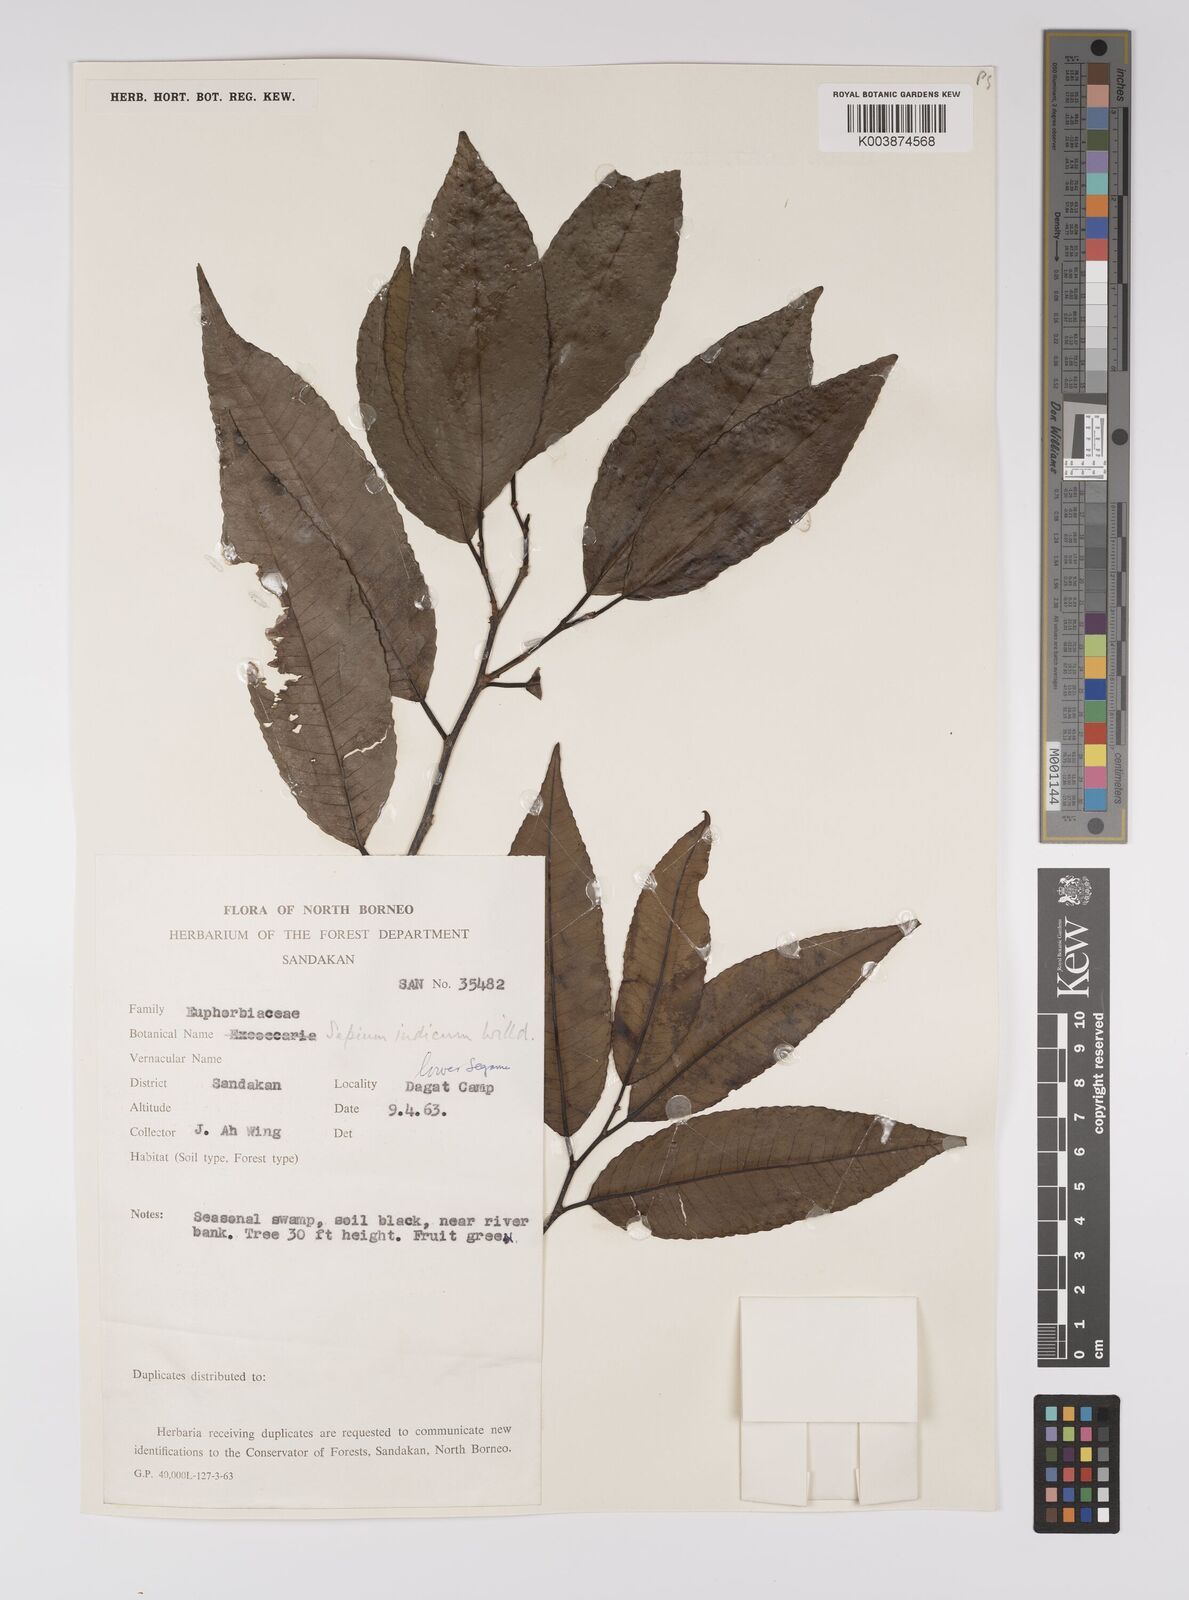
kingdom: Plantae
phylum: Tracheophyta
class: Magnoliopsida
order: Malpighiales
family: Euphorbiaceae
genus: Shirakiopsis
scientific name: Shirakiopsis indica
